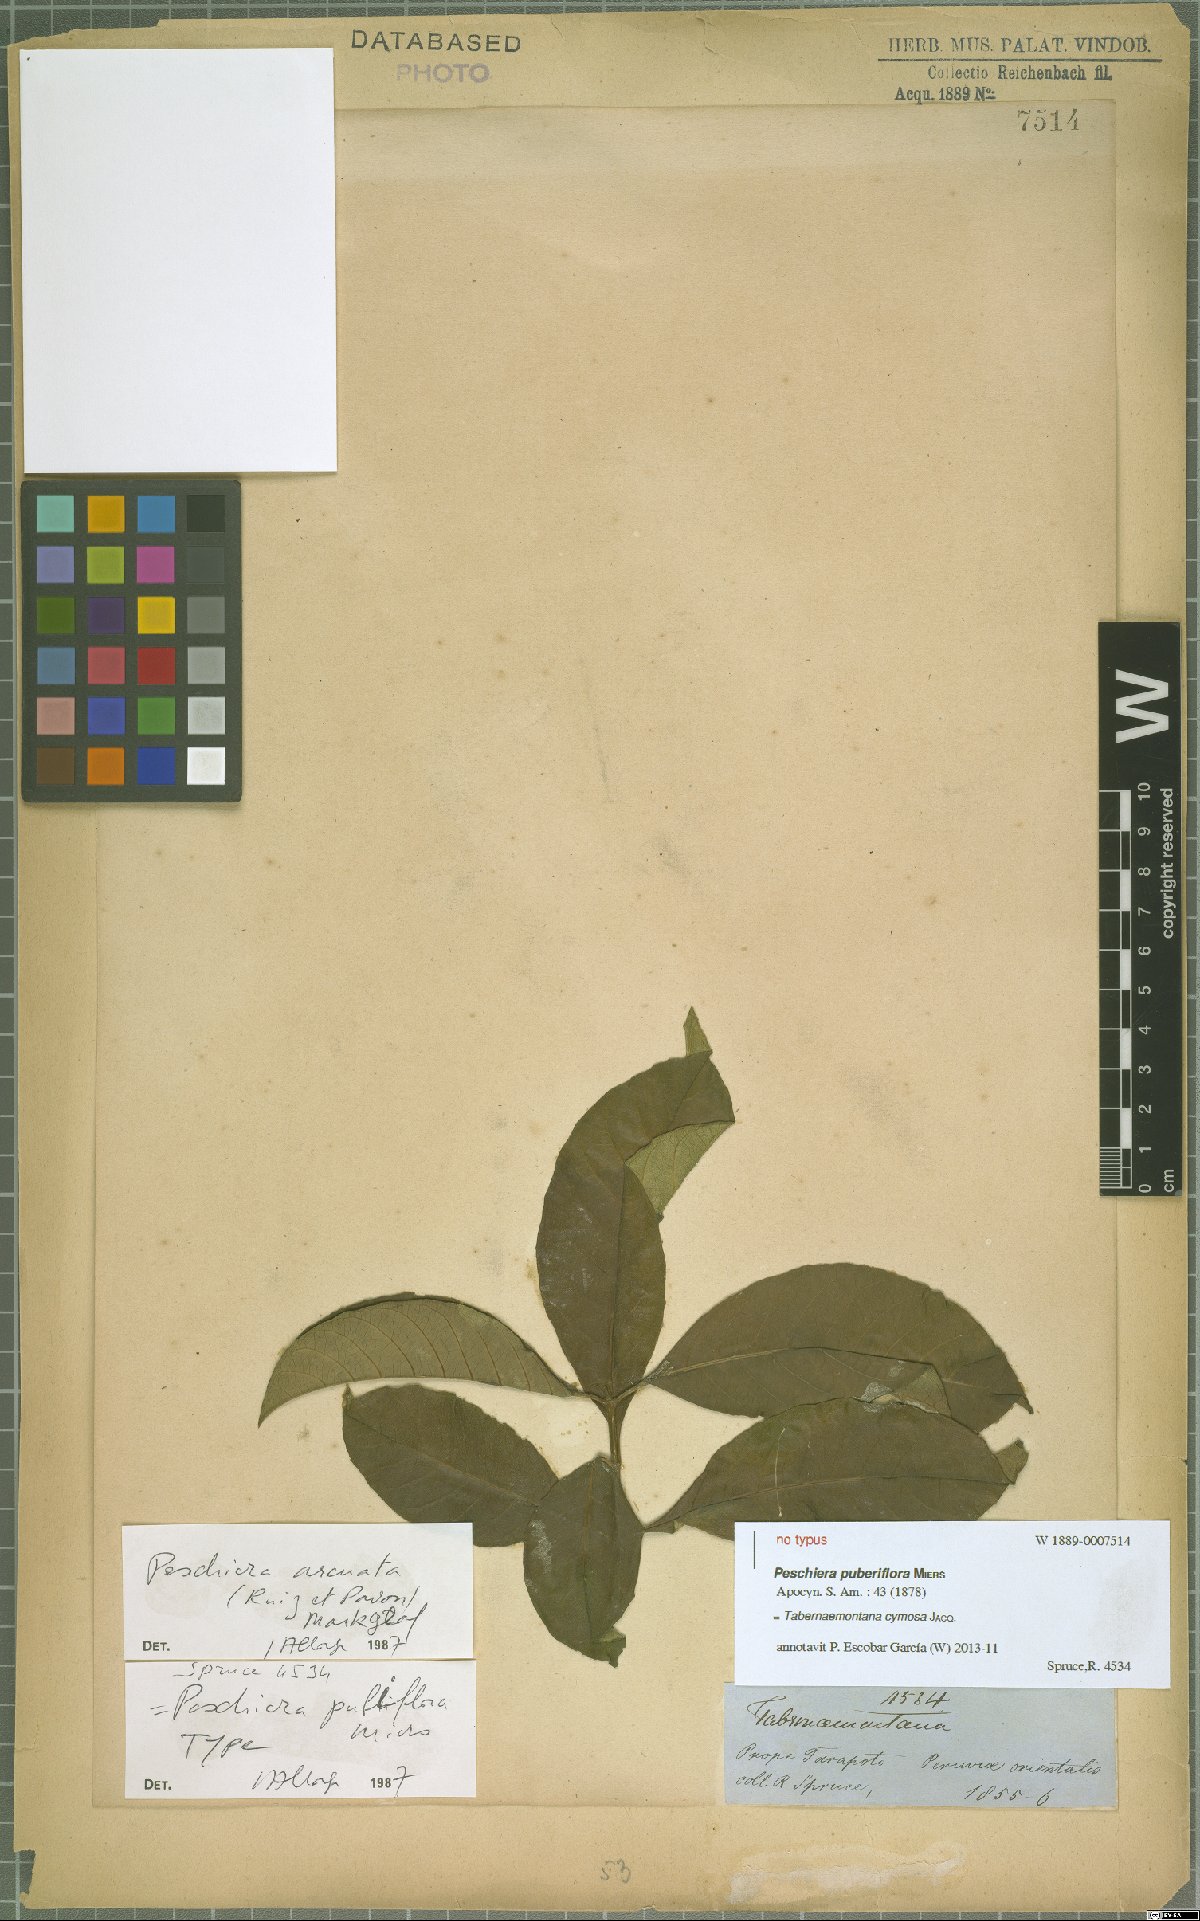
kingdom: Plantae
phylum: Tracheophyta
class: Magnoliopsida
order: Gentianales
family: Apocynaceae
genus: Tabernaemontana
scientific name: Tabernaemontana cymosa
